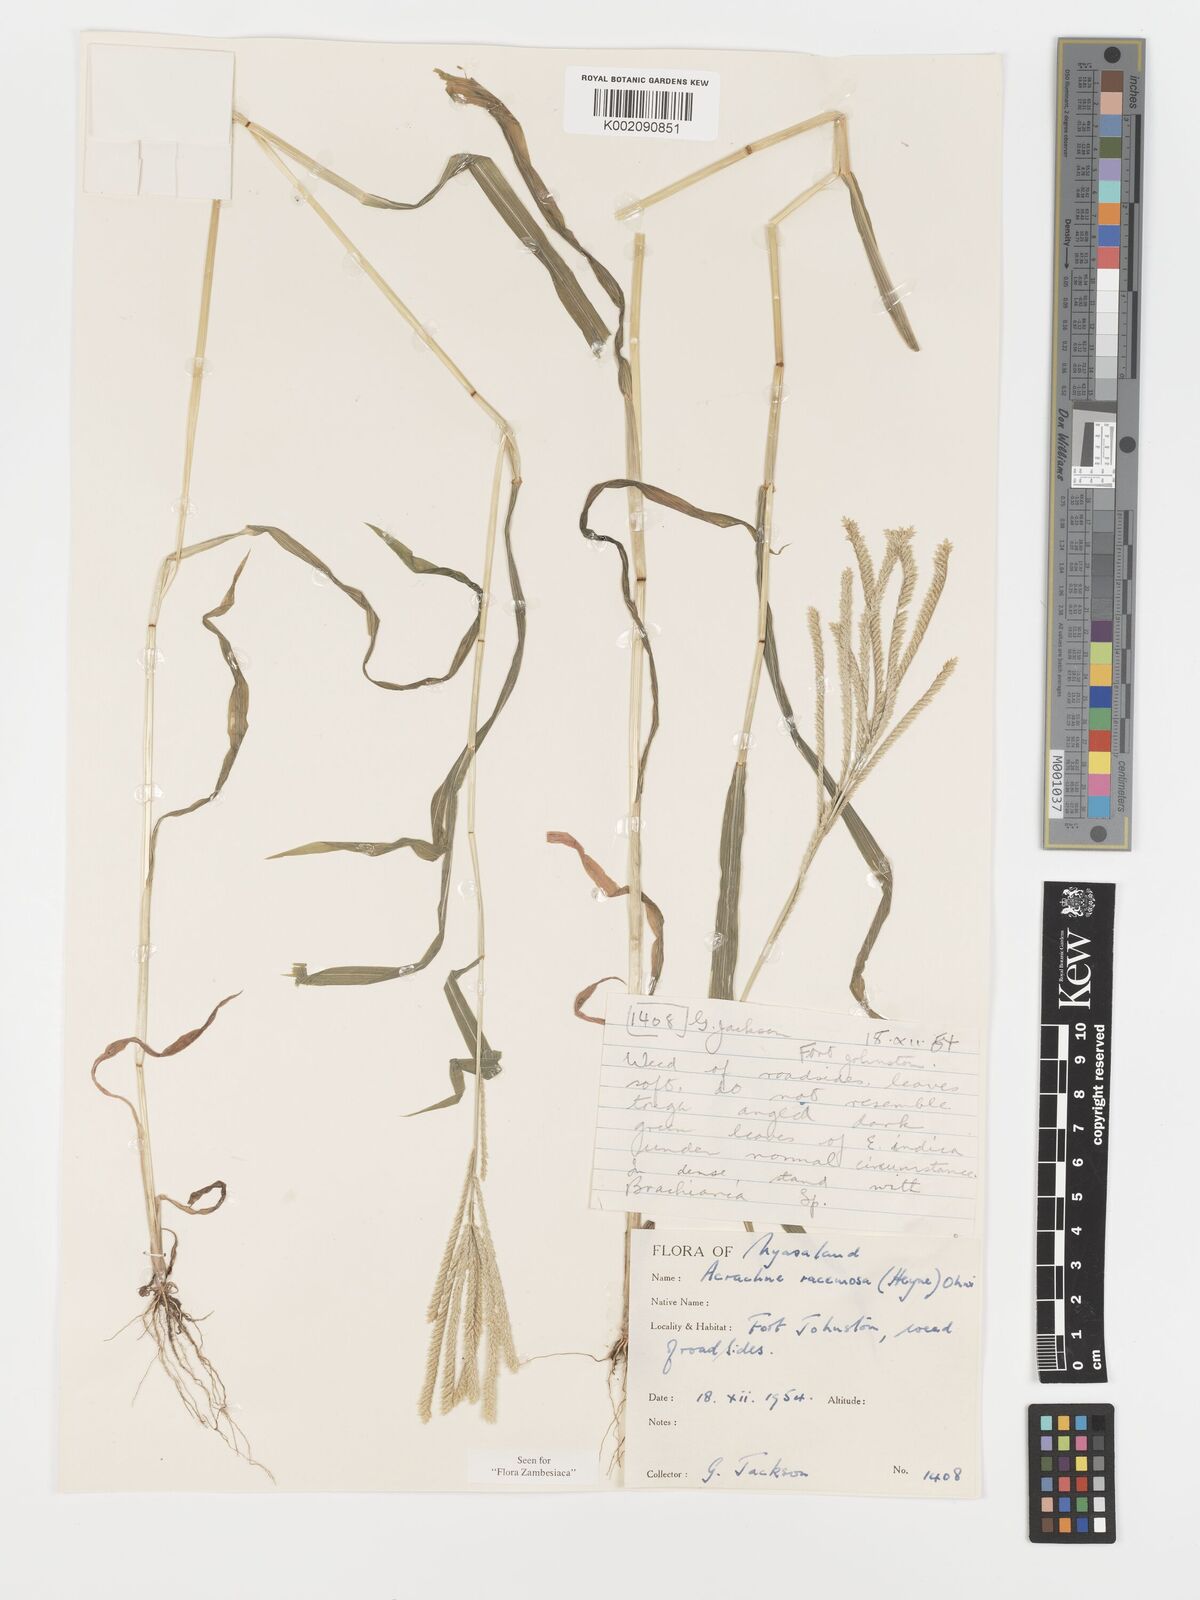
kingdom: Plantae
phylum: Tracheophyta
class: Liliopsida
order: Poales
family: Poaceae
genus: Acrachne
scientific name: Acrachne racemosa
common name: Goosegrass
